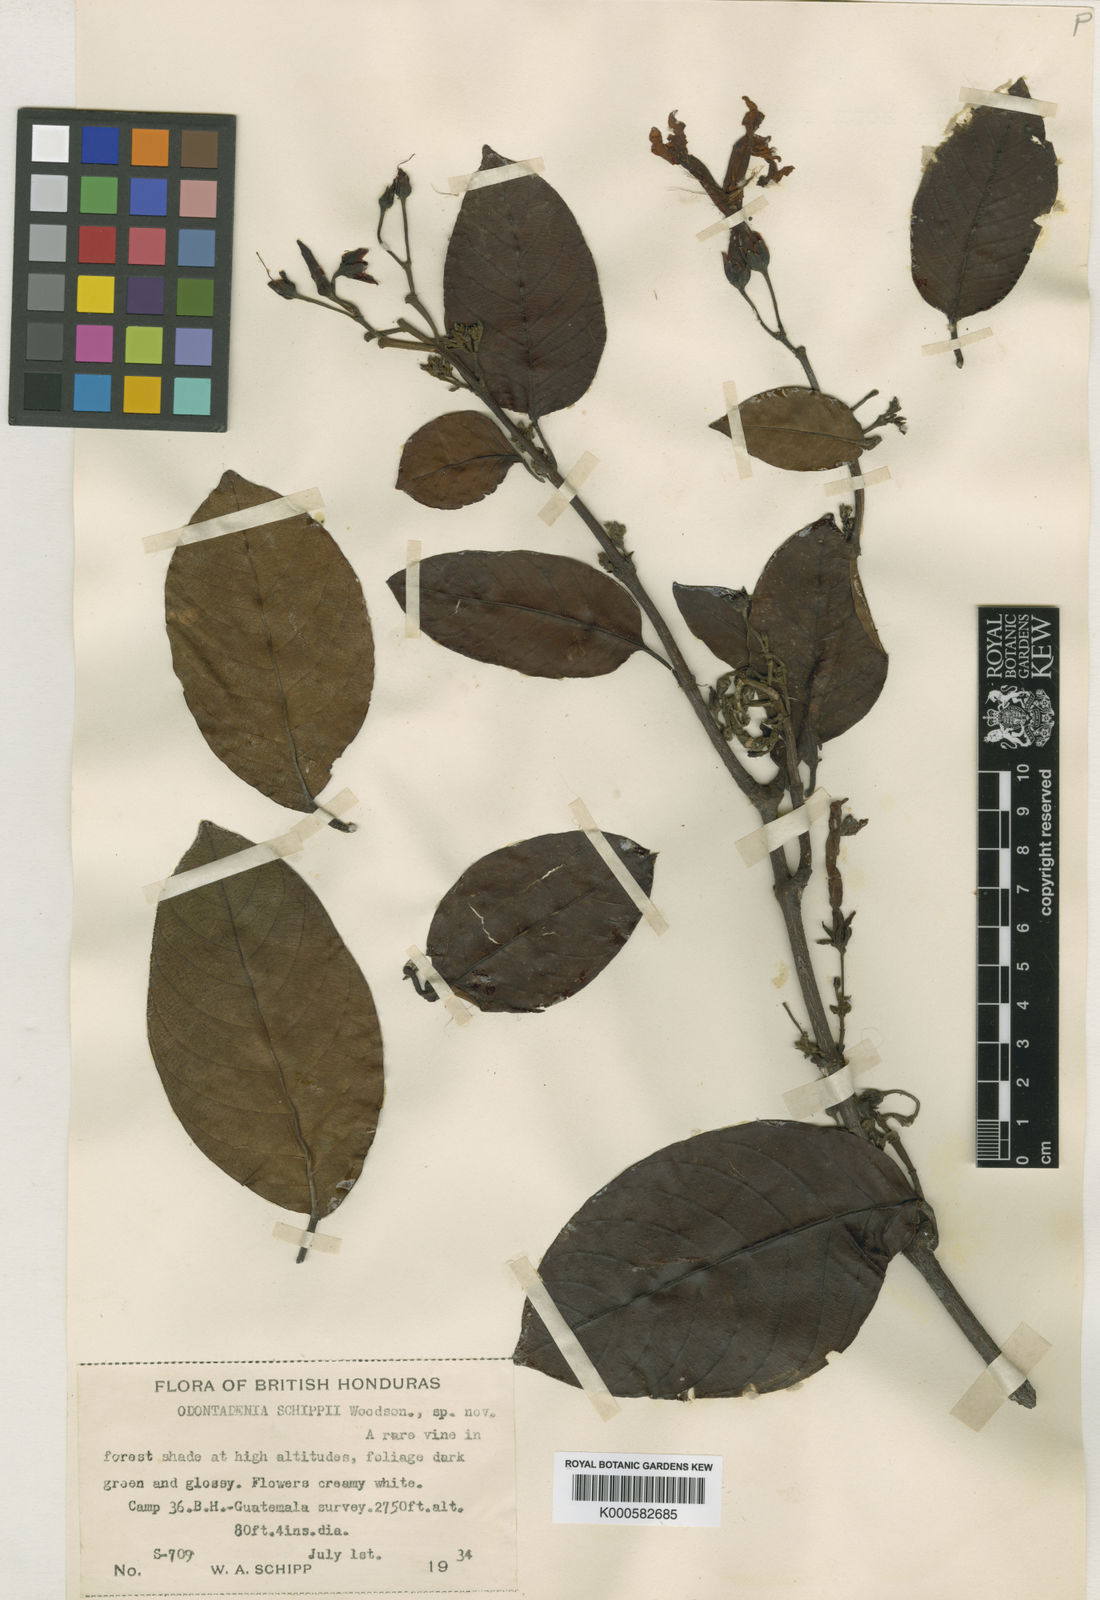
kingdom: Plantae
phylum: Tracheophyta
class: Magnoliopsida
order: Gentianales
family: Apocynaceae
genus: Odontadenia
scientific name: Odontadenia puncticulosa
